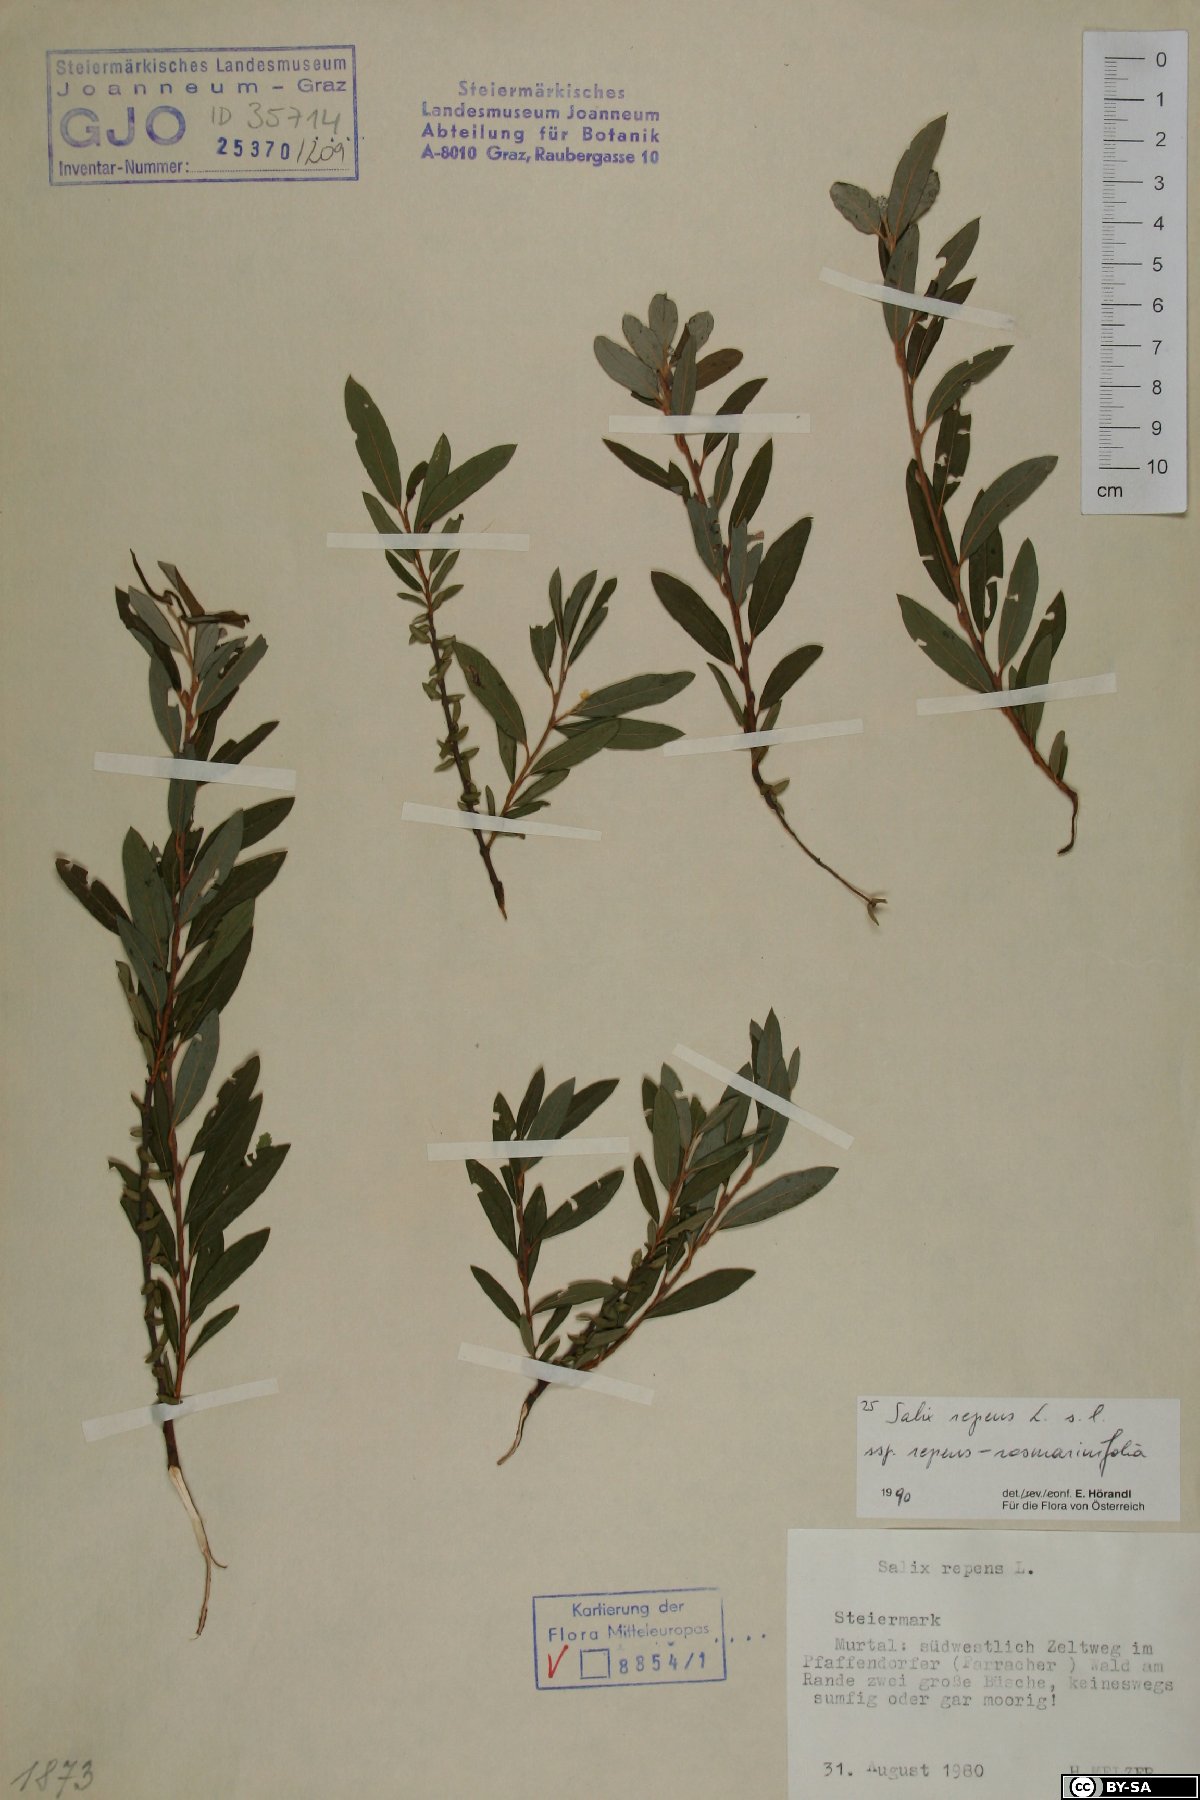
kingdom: Plantae
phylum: Tracheophyta
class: Magnoliopsida
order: Malpighiales
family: Salicaceae
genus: Salix
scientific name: Salix repens
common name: Creeping willow
